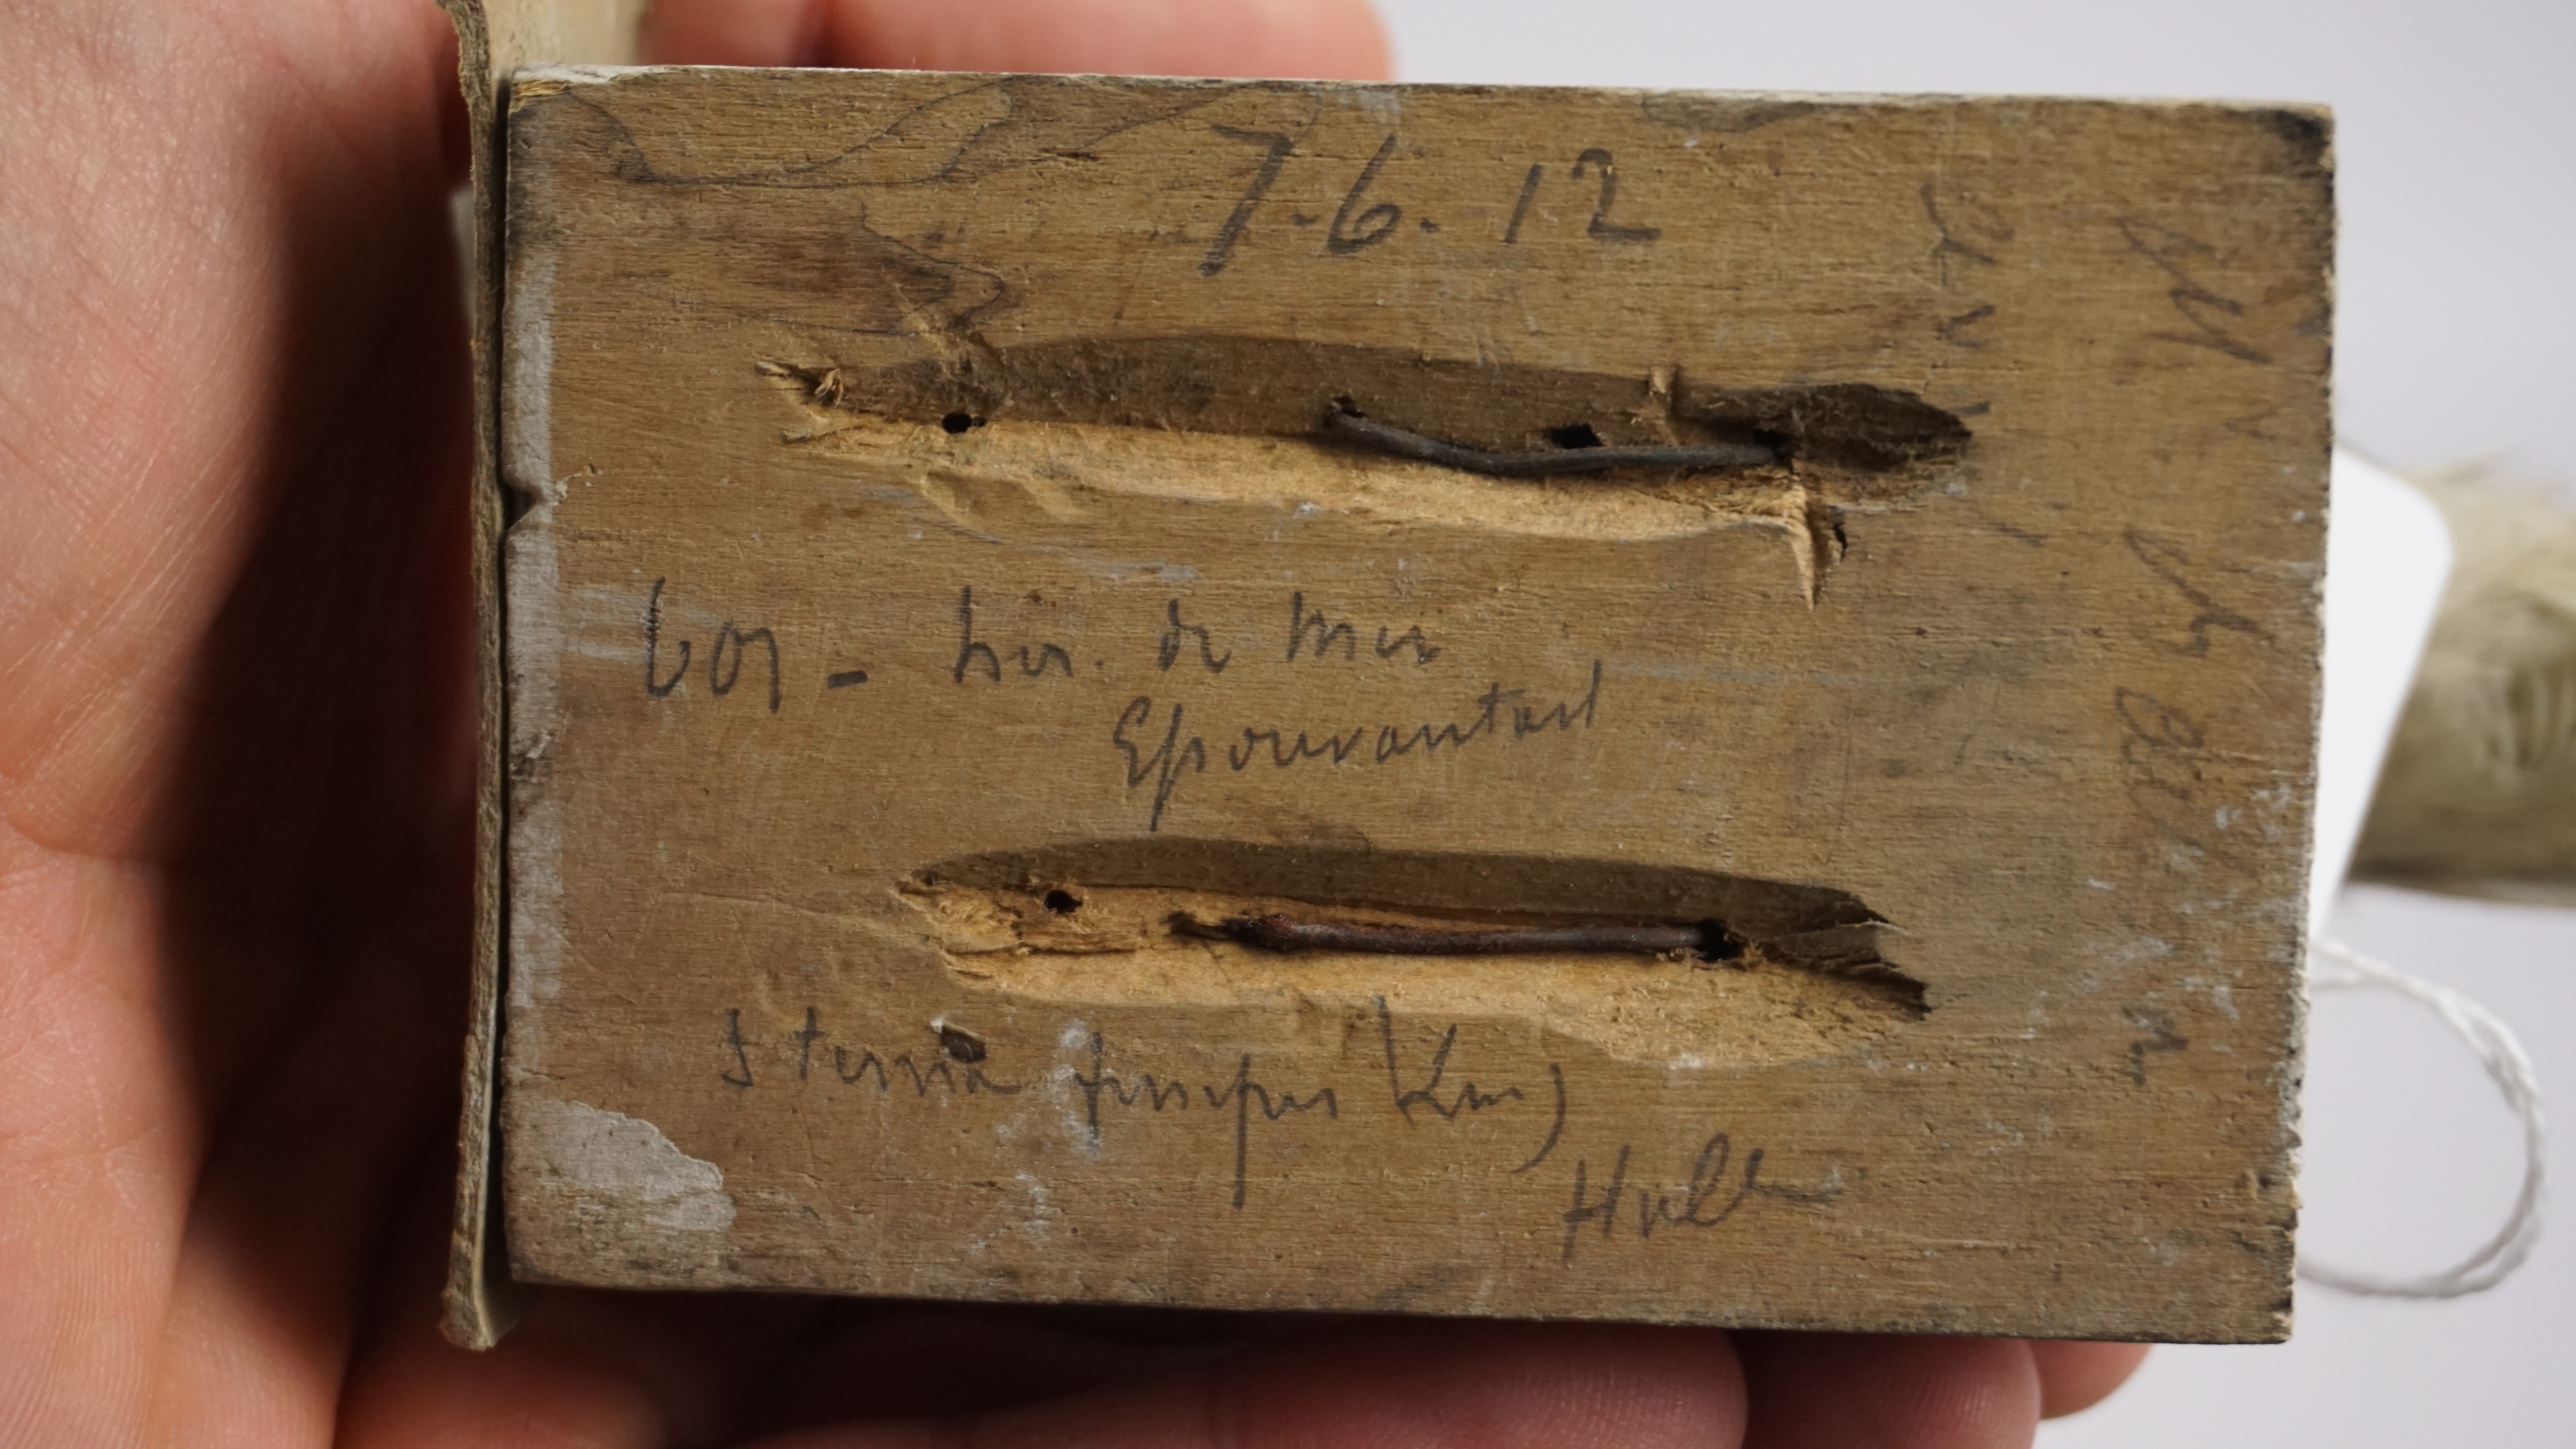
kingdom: Animalia
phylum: Chordata
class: Aves
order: Charadriiformes
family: Laridae
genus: Chlidonias
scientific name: Chlidonias niger
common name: Black tern
